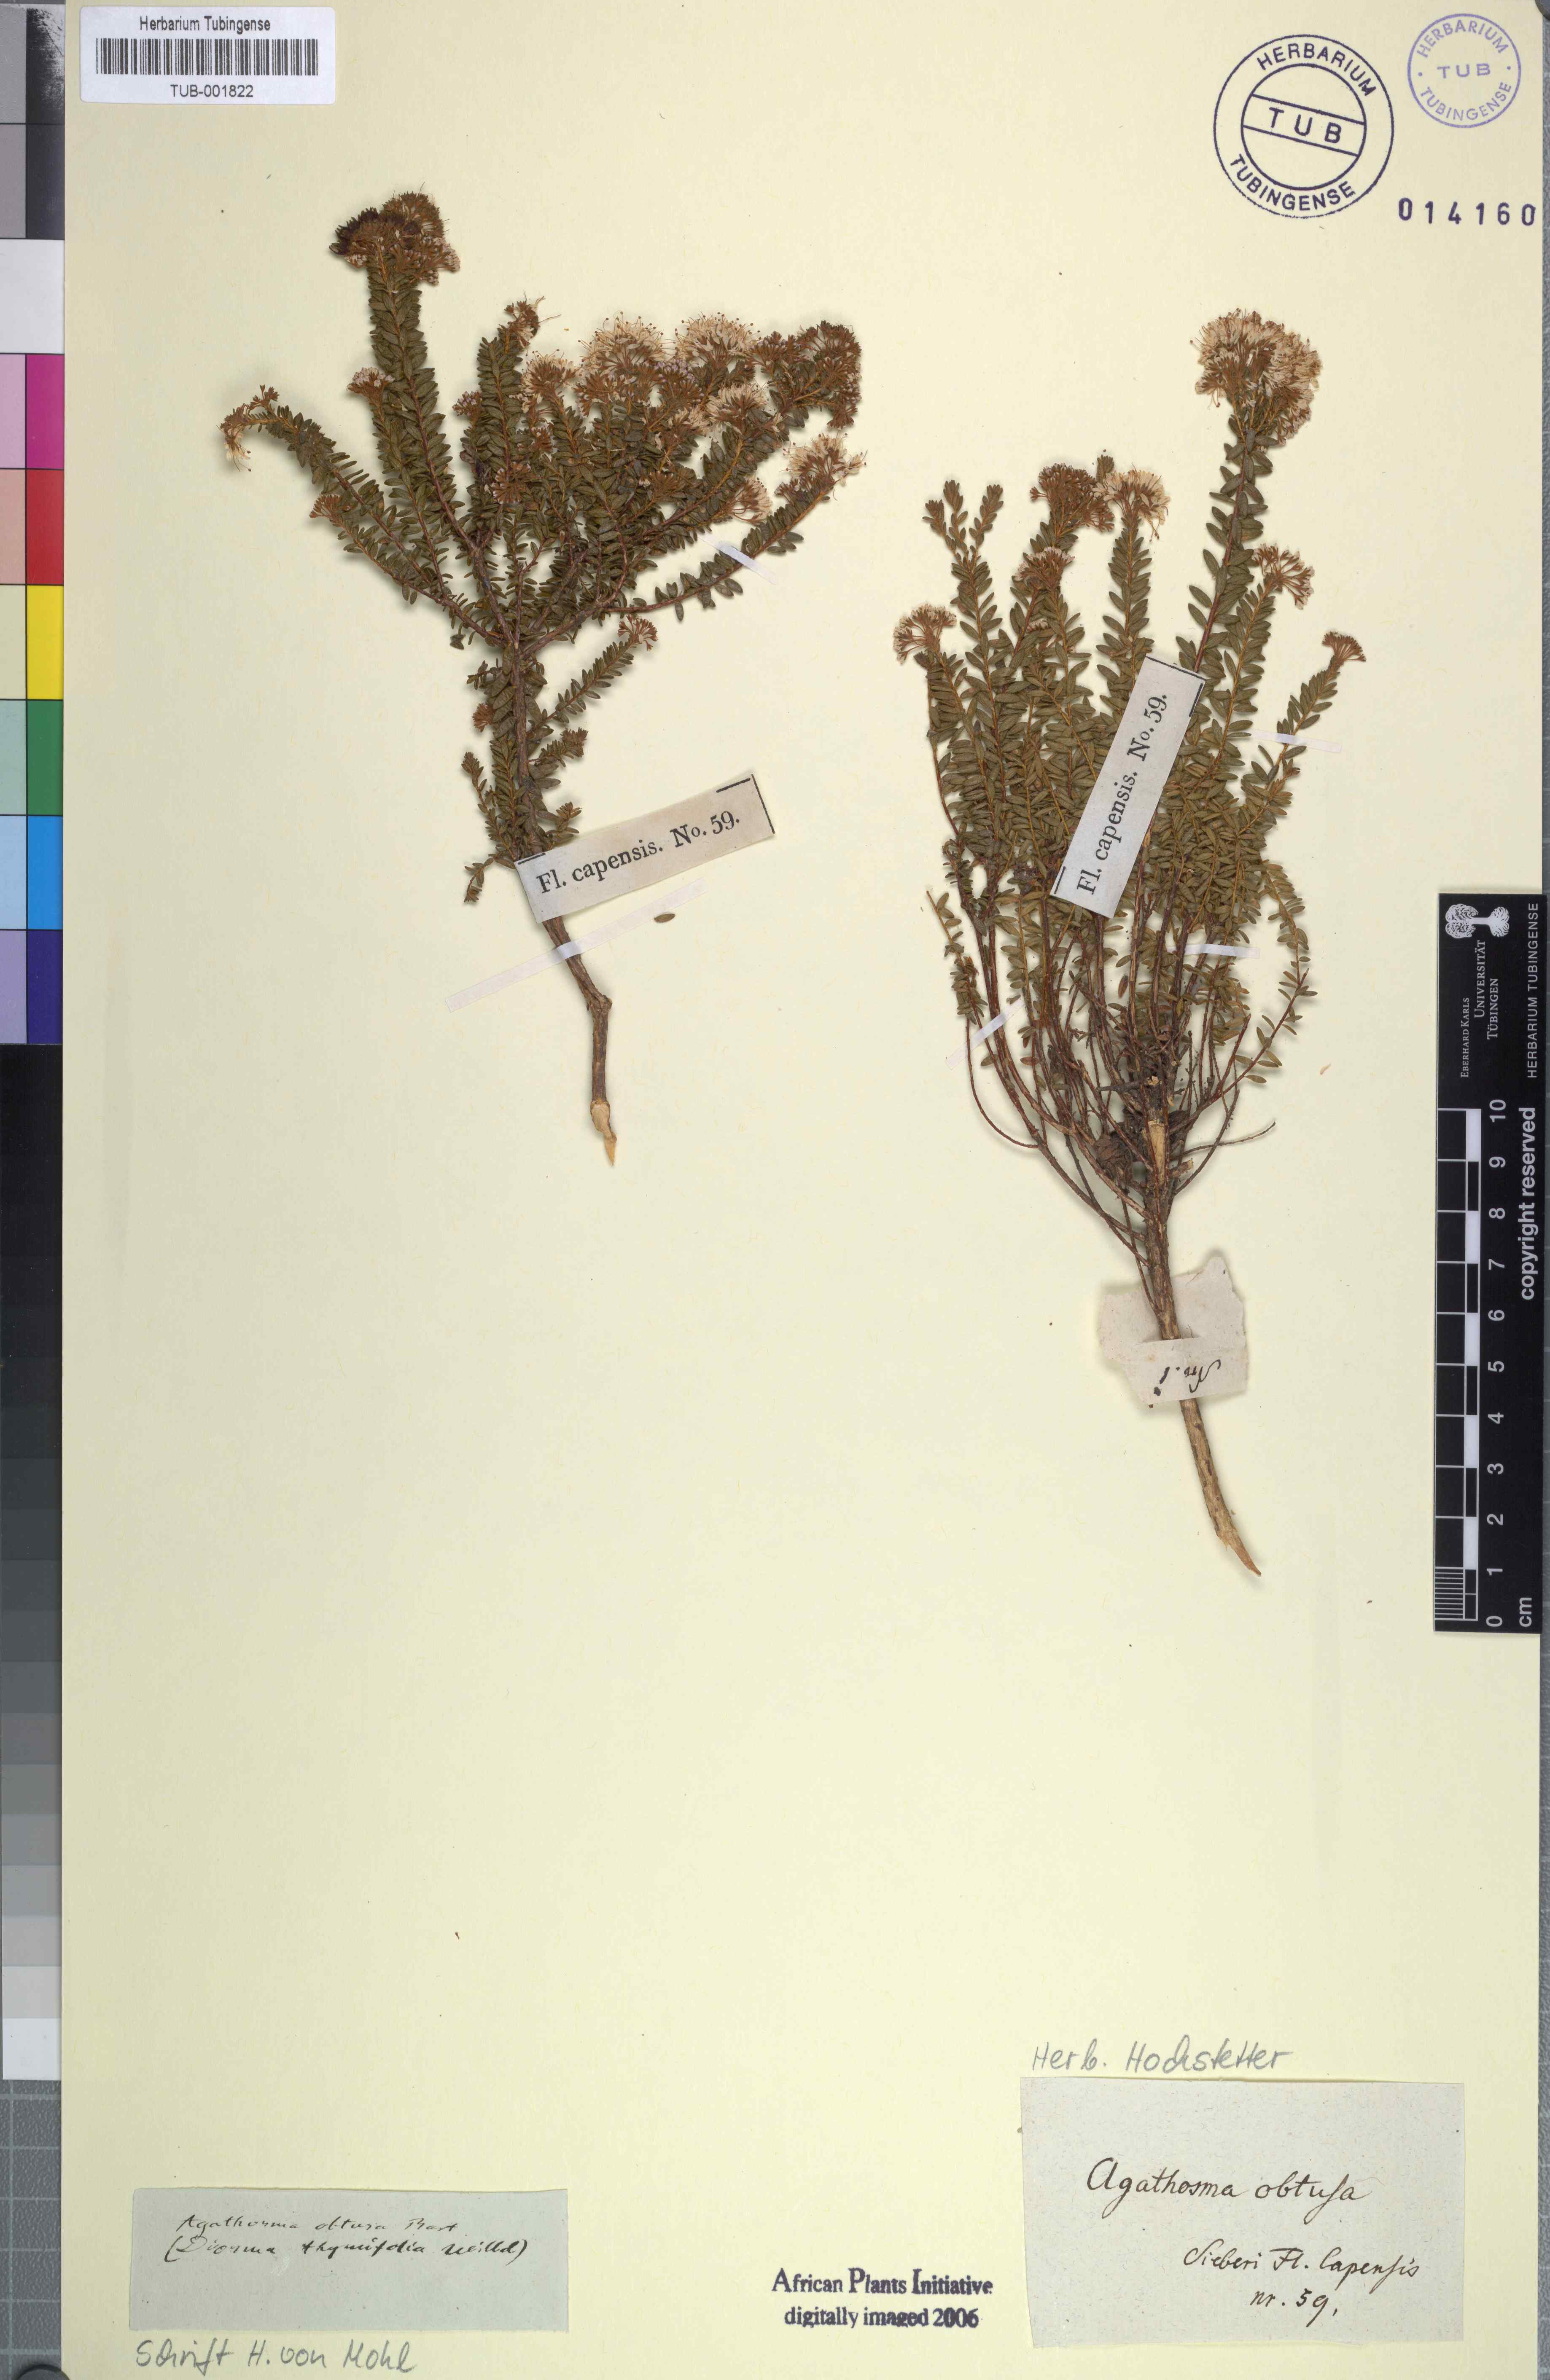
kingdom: Plantae
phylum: Tracheophyta
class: Magnoliopsida
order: Sapindales
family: Rutaceae
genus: Agathosma
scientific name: Agathosma ciliaris
